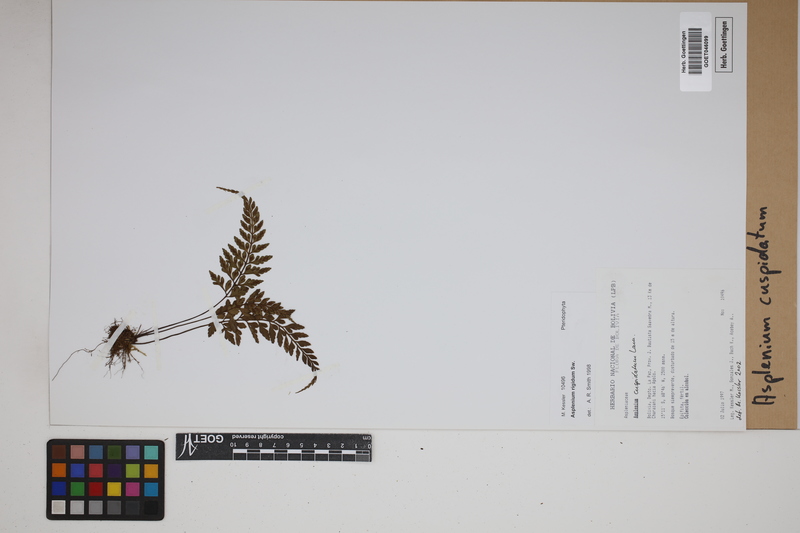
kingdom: Plantae
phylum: Tracheophyta
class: Polypodiopsida
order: Polypodiales
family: Aspleniaceae
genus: Asplenium
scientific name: Asplenium cuspidatum
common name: Eared spleenwort
